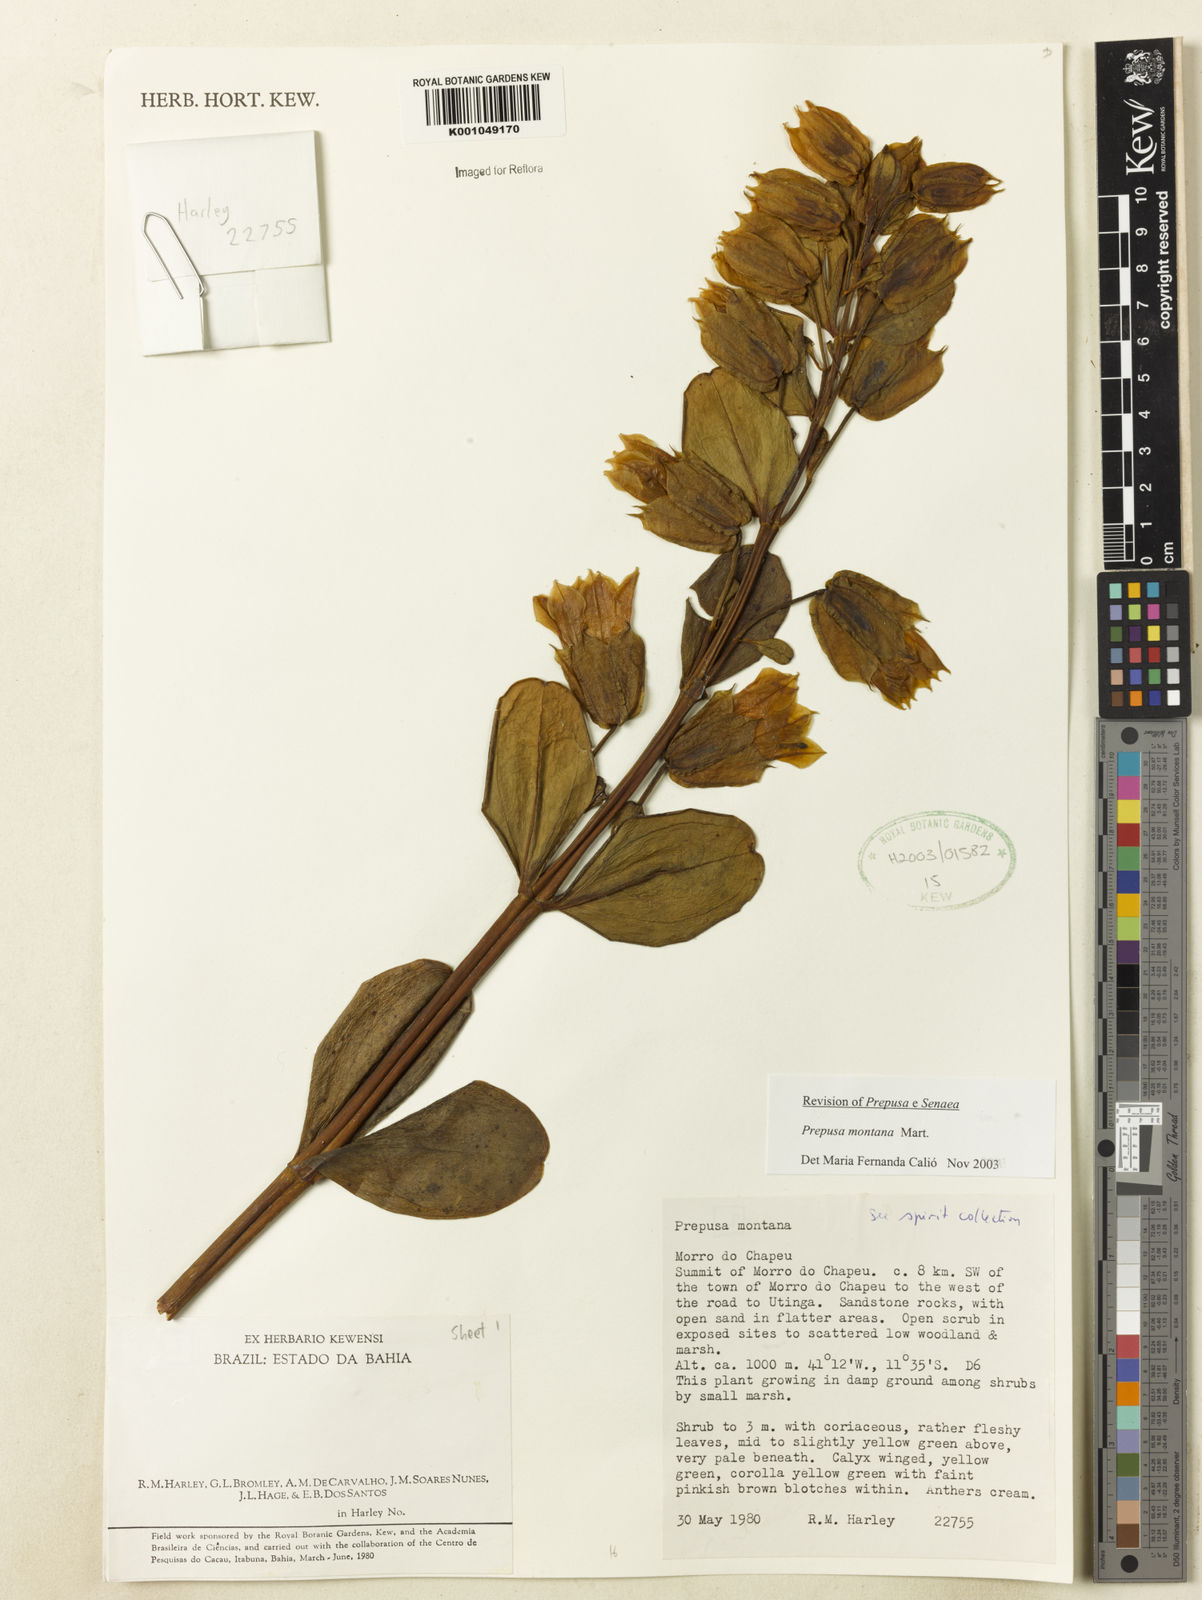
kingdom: Plantae
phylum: Tracheophyta
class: Magnoliopsida
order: Gentianales
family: Gentianaceae
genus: Prepusa
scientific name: Prepusa montana
